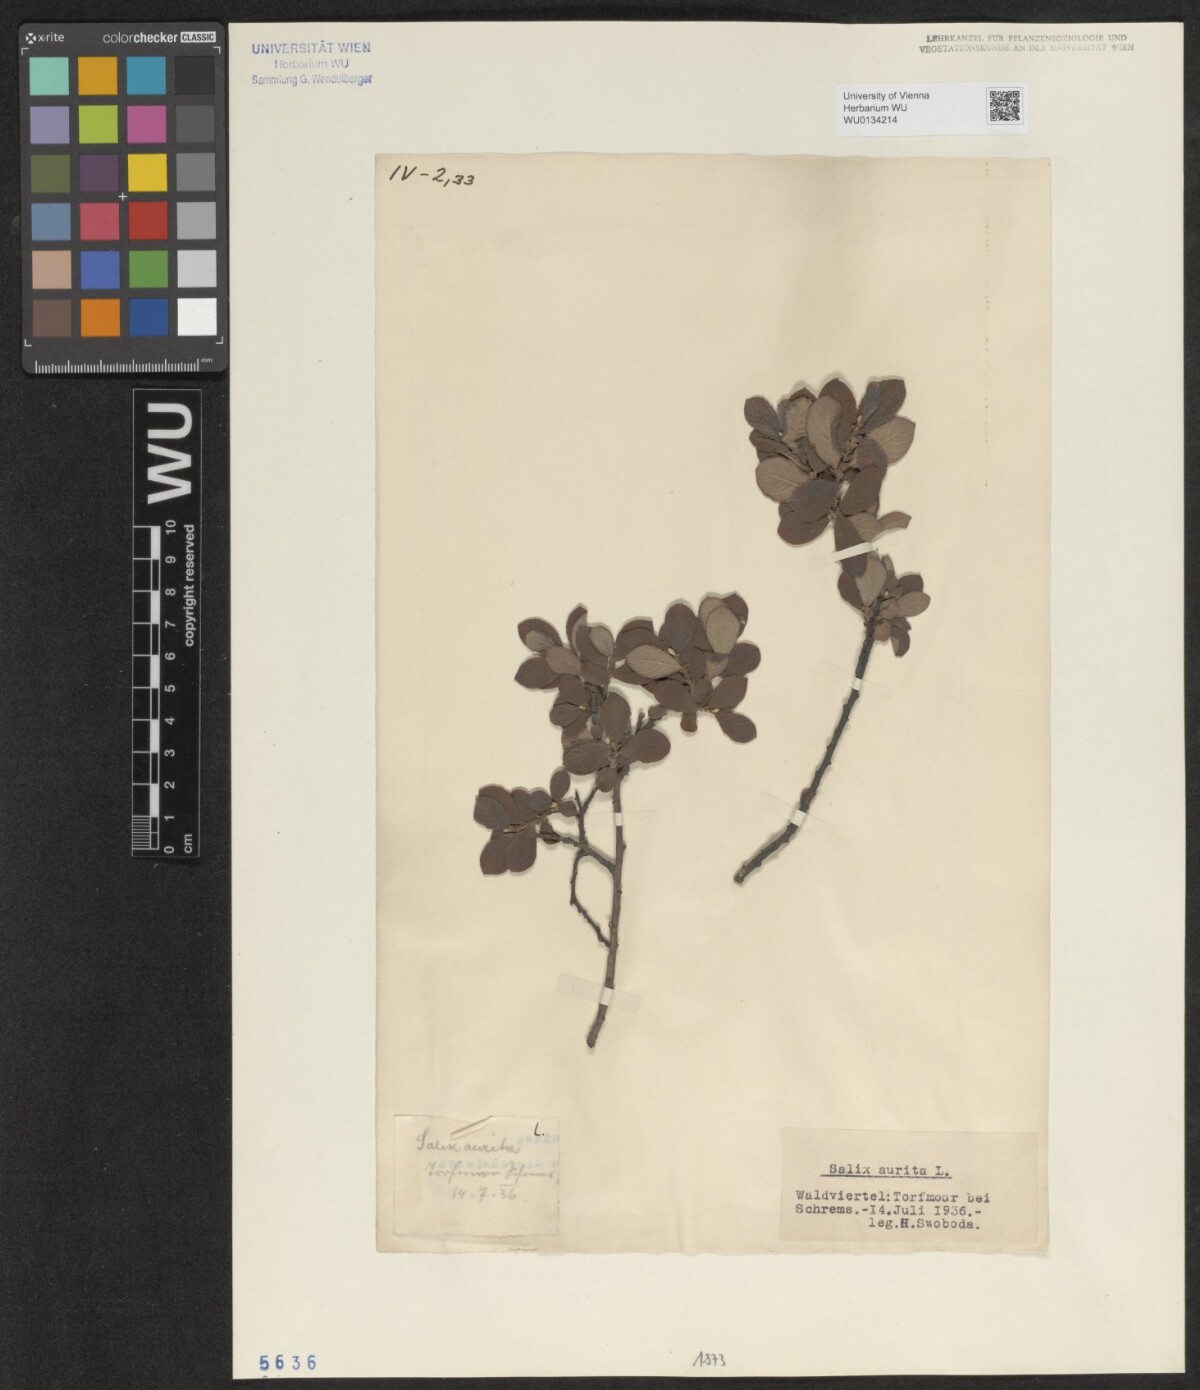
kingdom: Plantae
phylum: Tracheophyta
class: Magnoliopsida
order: Malpighiales
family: Salicaceae
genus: Salix
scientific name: Salix aurita
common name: Eared willow
